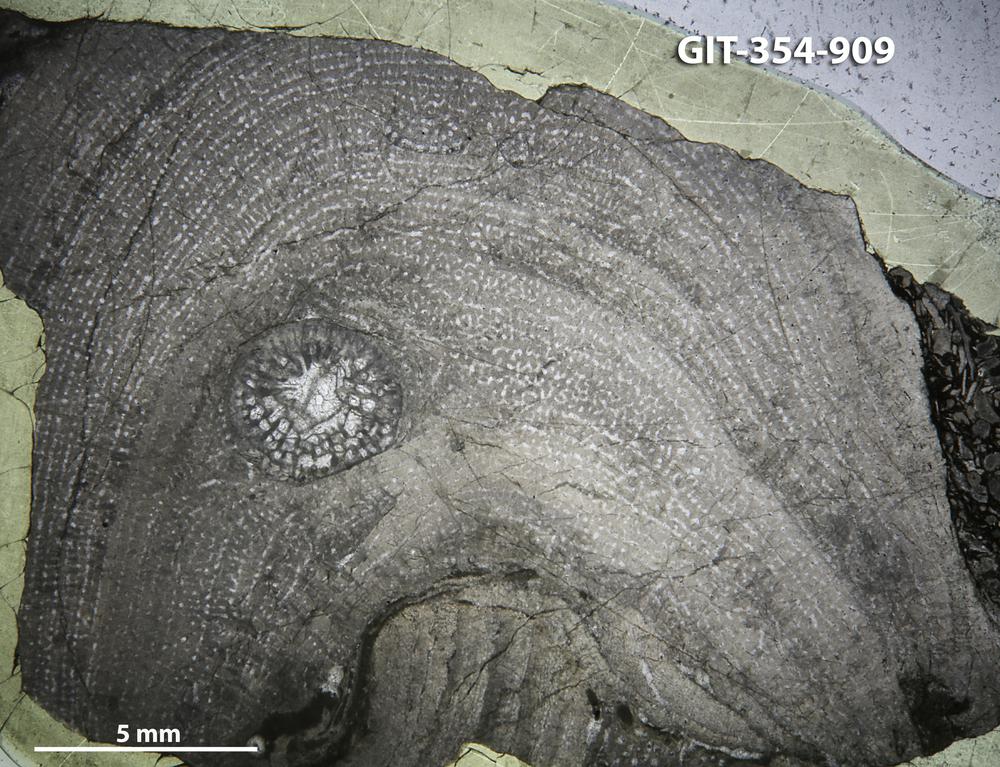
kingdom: Animalia
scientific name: Animalia
